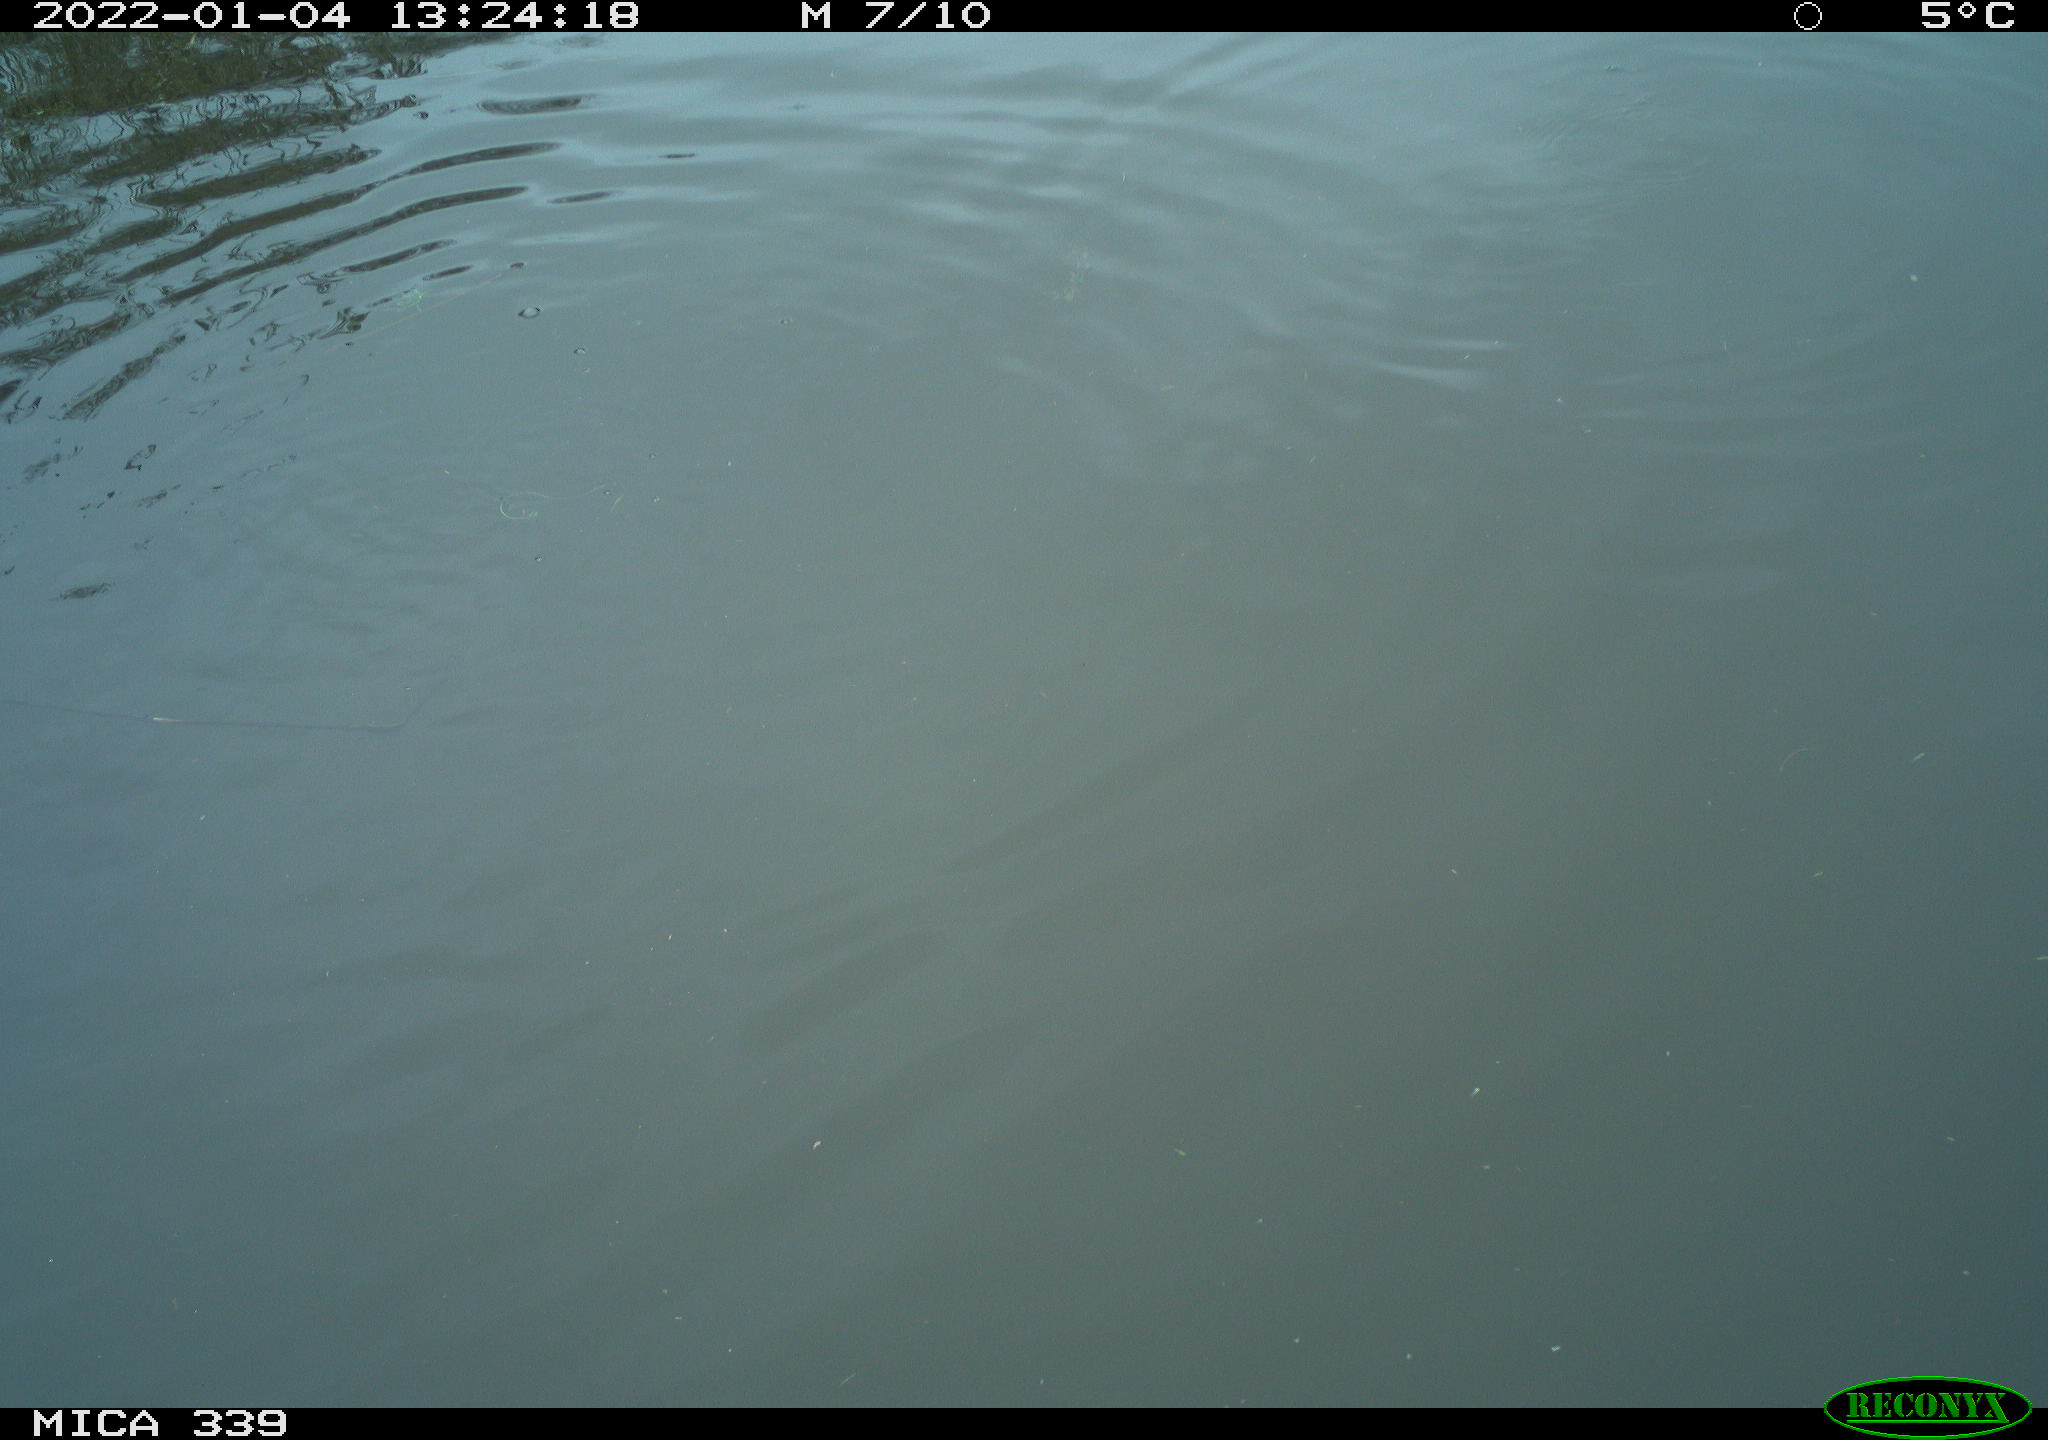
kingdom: Animalia
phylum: Chordata
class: Aves
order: Pelecaniformes
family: Ardeidae
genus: Ardea
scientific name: Ardea alba
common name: Great egret
